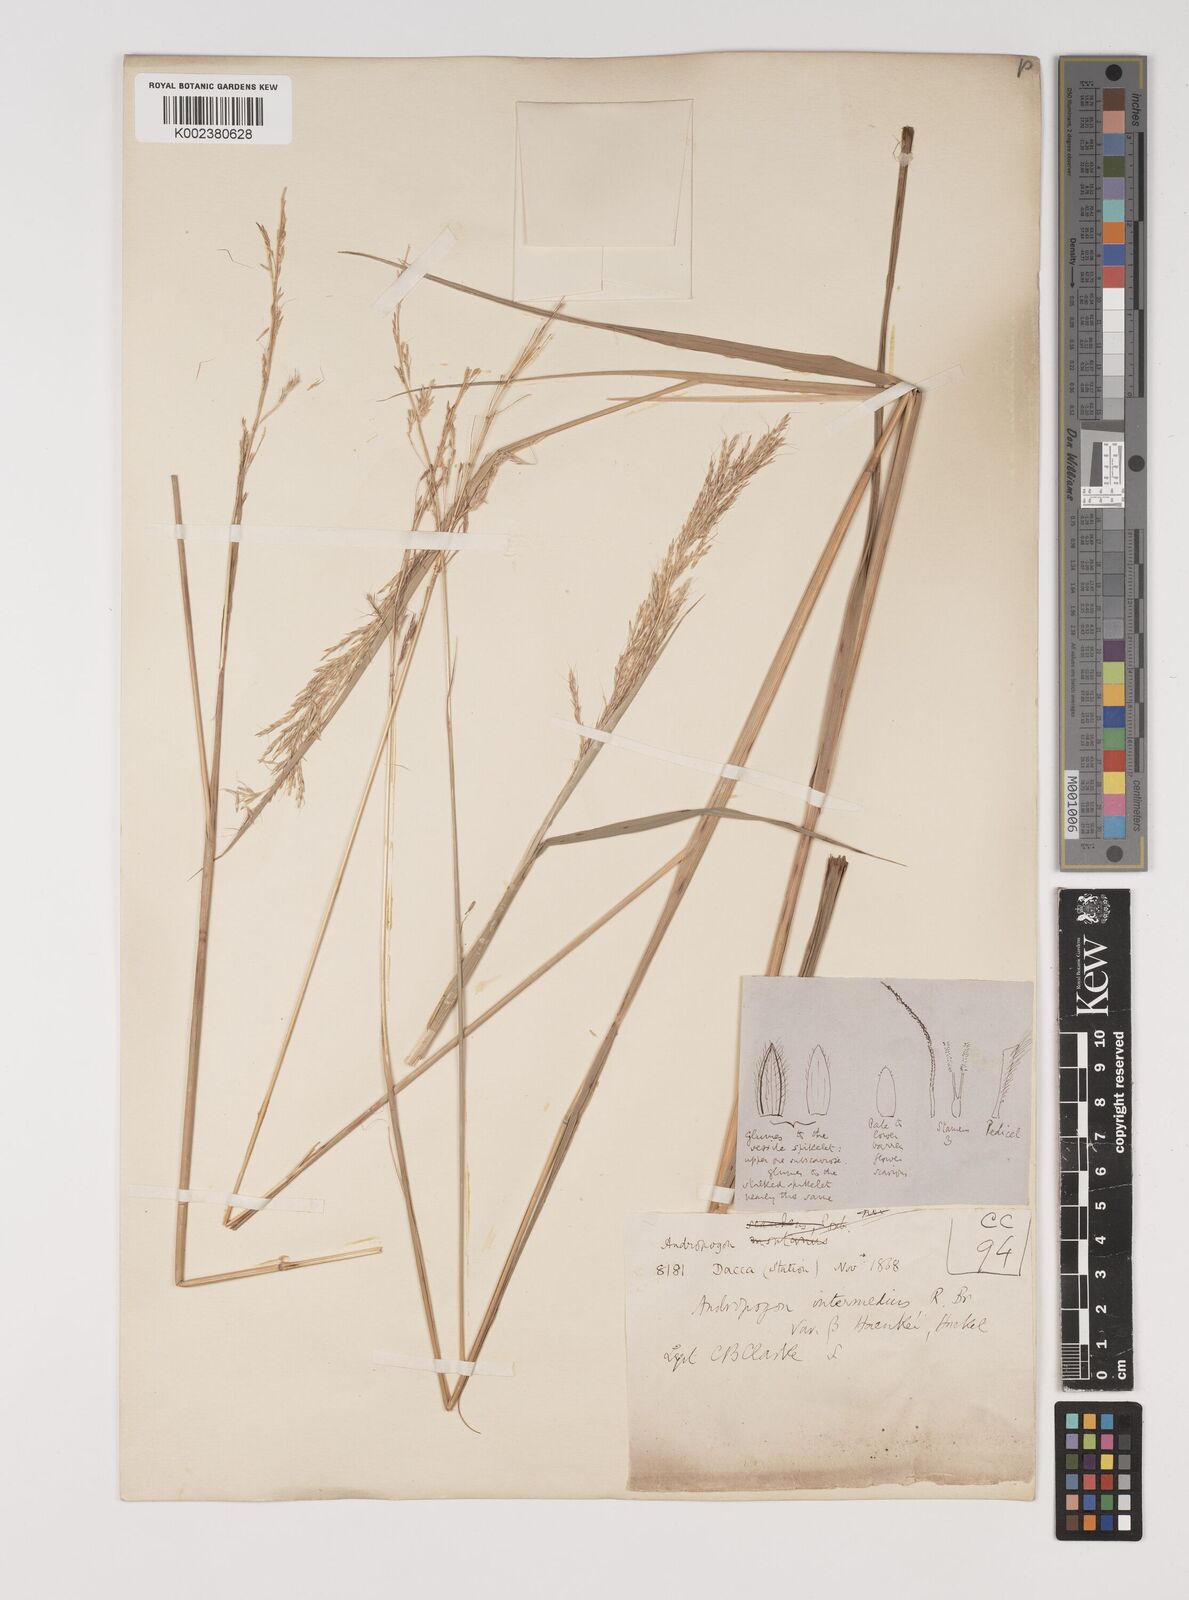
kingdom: Plantae
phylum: Tracheophyta
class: Liliopsida
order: Poales
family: Poaceae
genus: Bothriochloa
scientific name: Bothriochloa bladhii
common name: Caucasian bluestem
